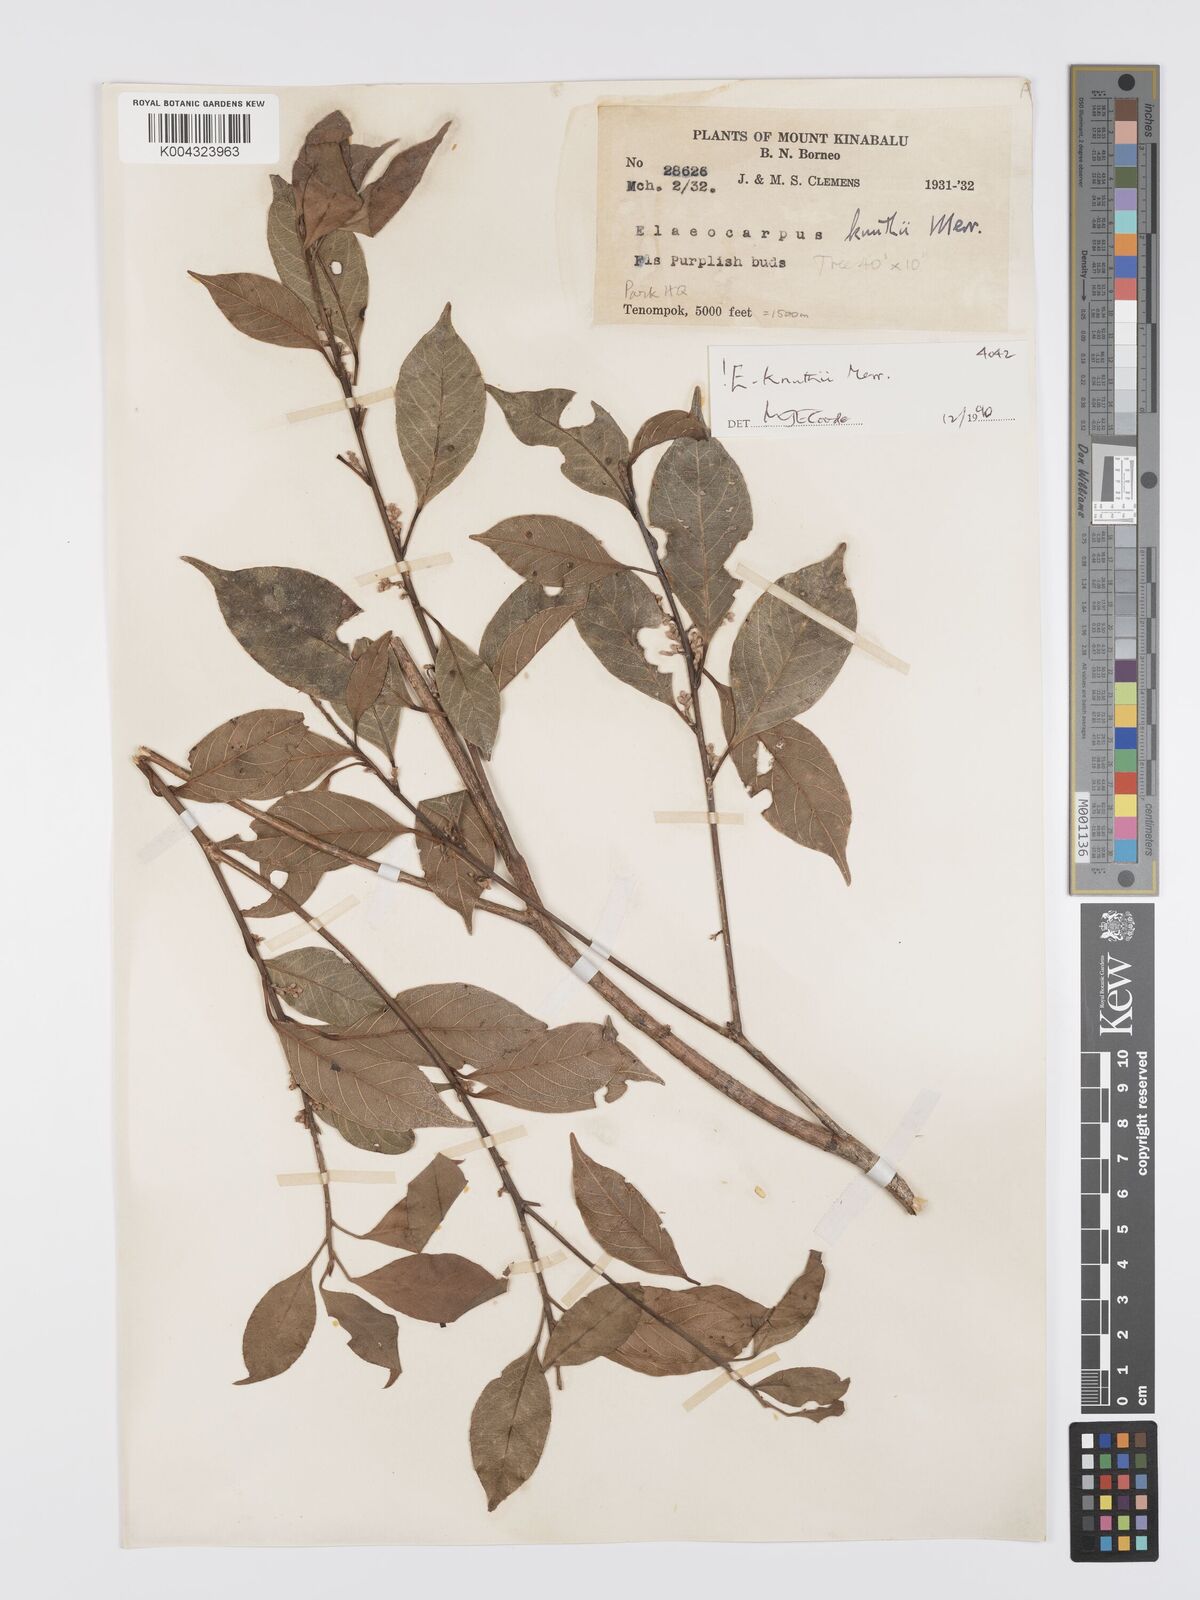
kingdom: Plantae
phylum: Tracheophyta
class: Magnoliopsida
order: Oxalidales
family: Elaeocarpaceae
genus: Elaeocarpus
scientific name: Elaeocarpus knuthii
